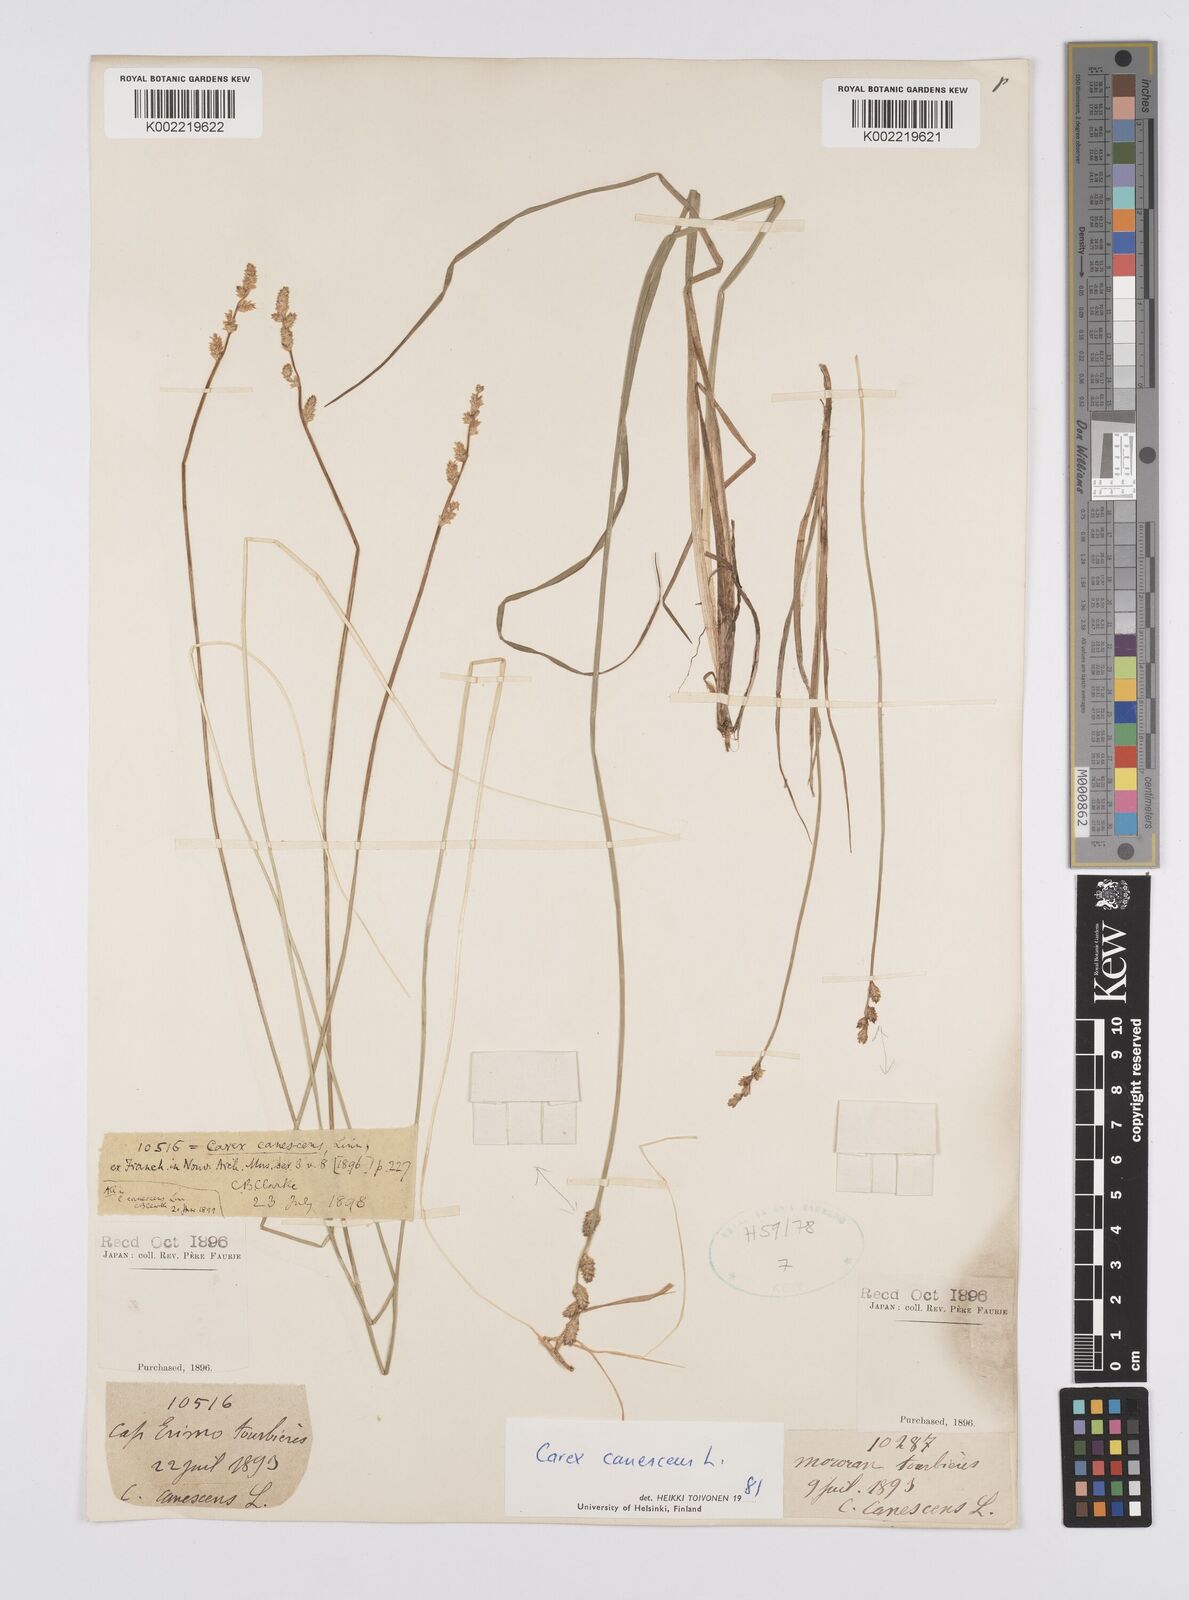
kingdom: Plantae
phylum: Tracheophyta
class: Liliopsida
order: Poales
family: Cyperaceae
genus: Carex
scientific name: Carex canescens
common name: White sedge
